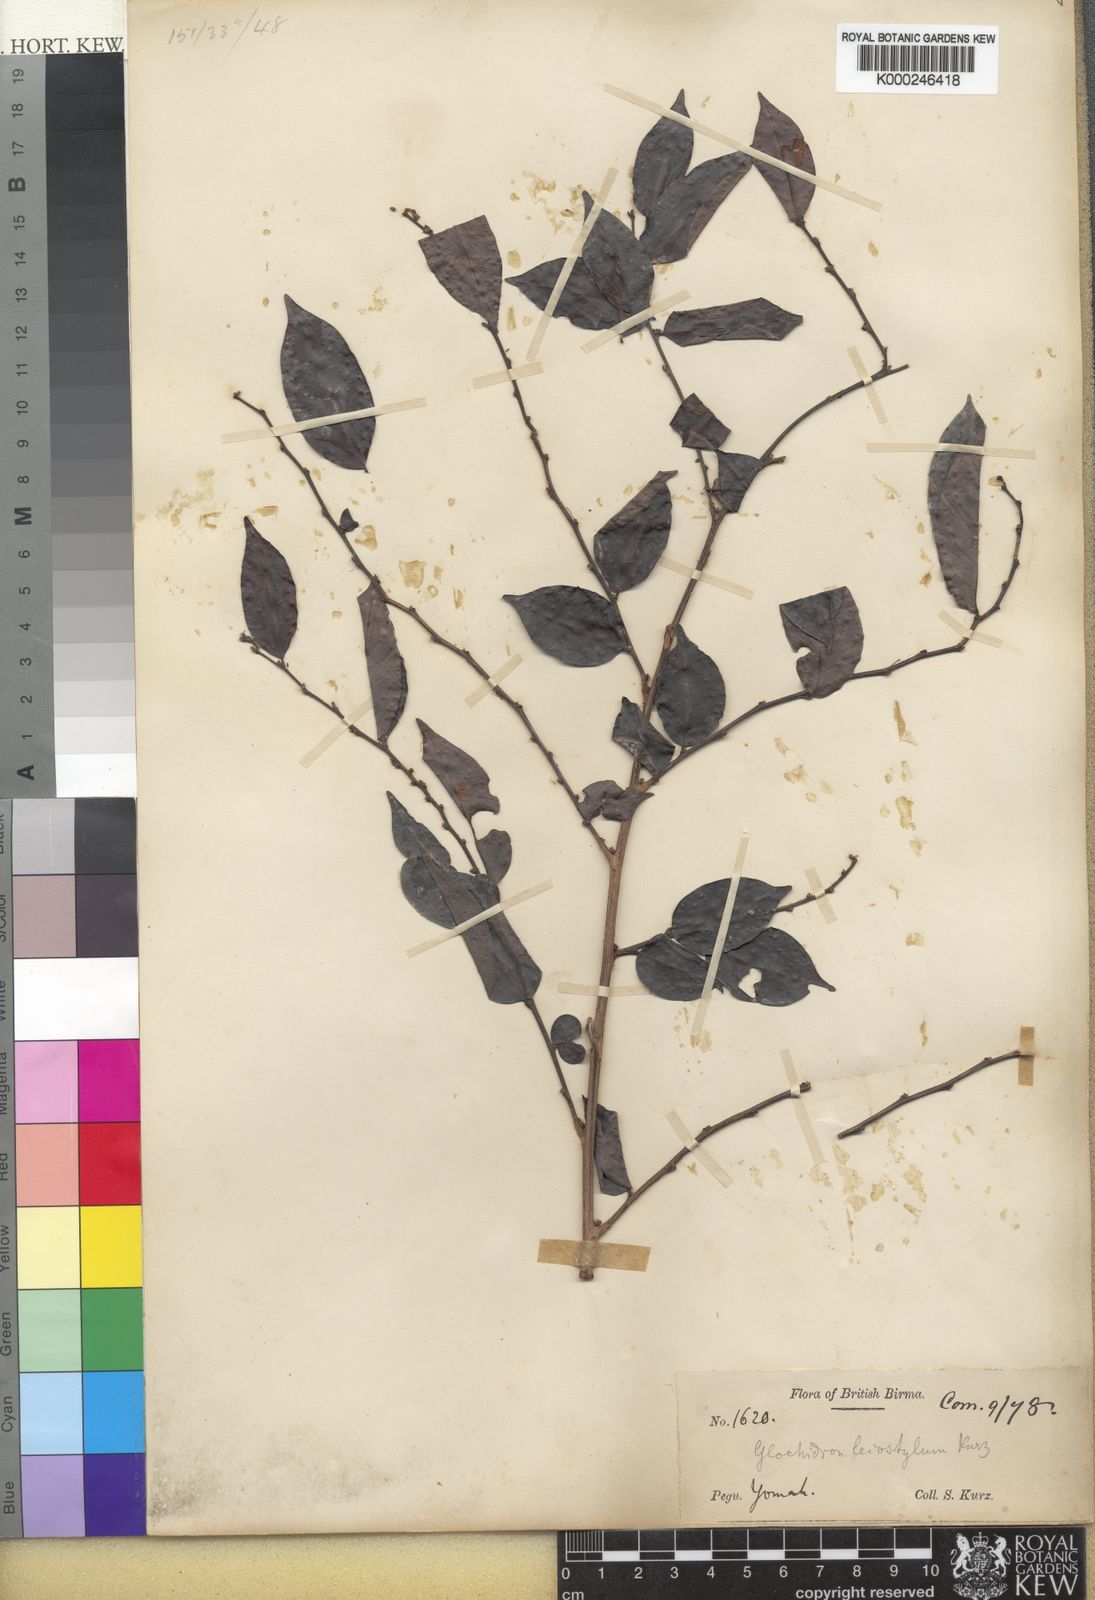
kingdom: Plantae
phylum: Tracheophyta
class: Magnoliopsida
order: Malpighiales
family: Phyllanthaceae
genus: Glochidion
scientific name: Glochidion rubrum
